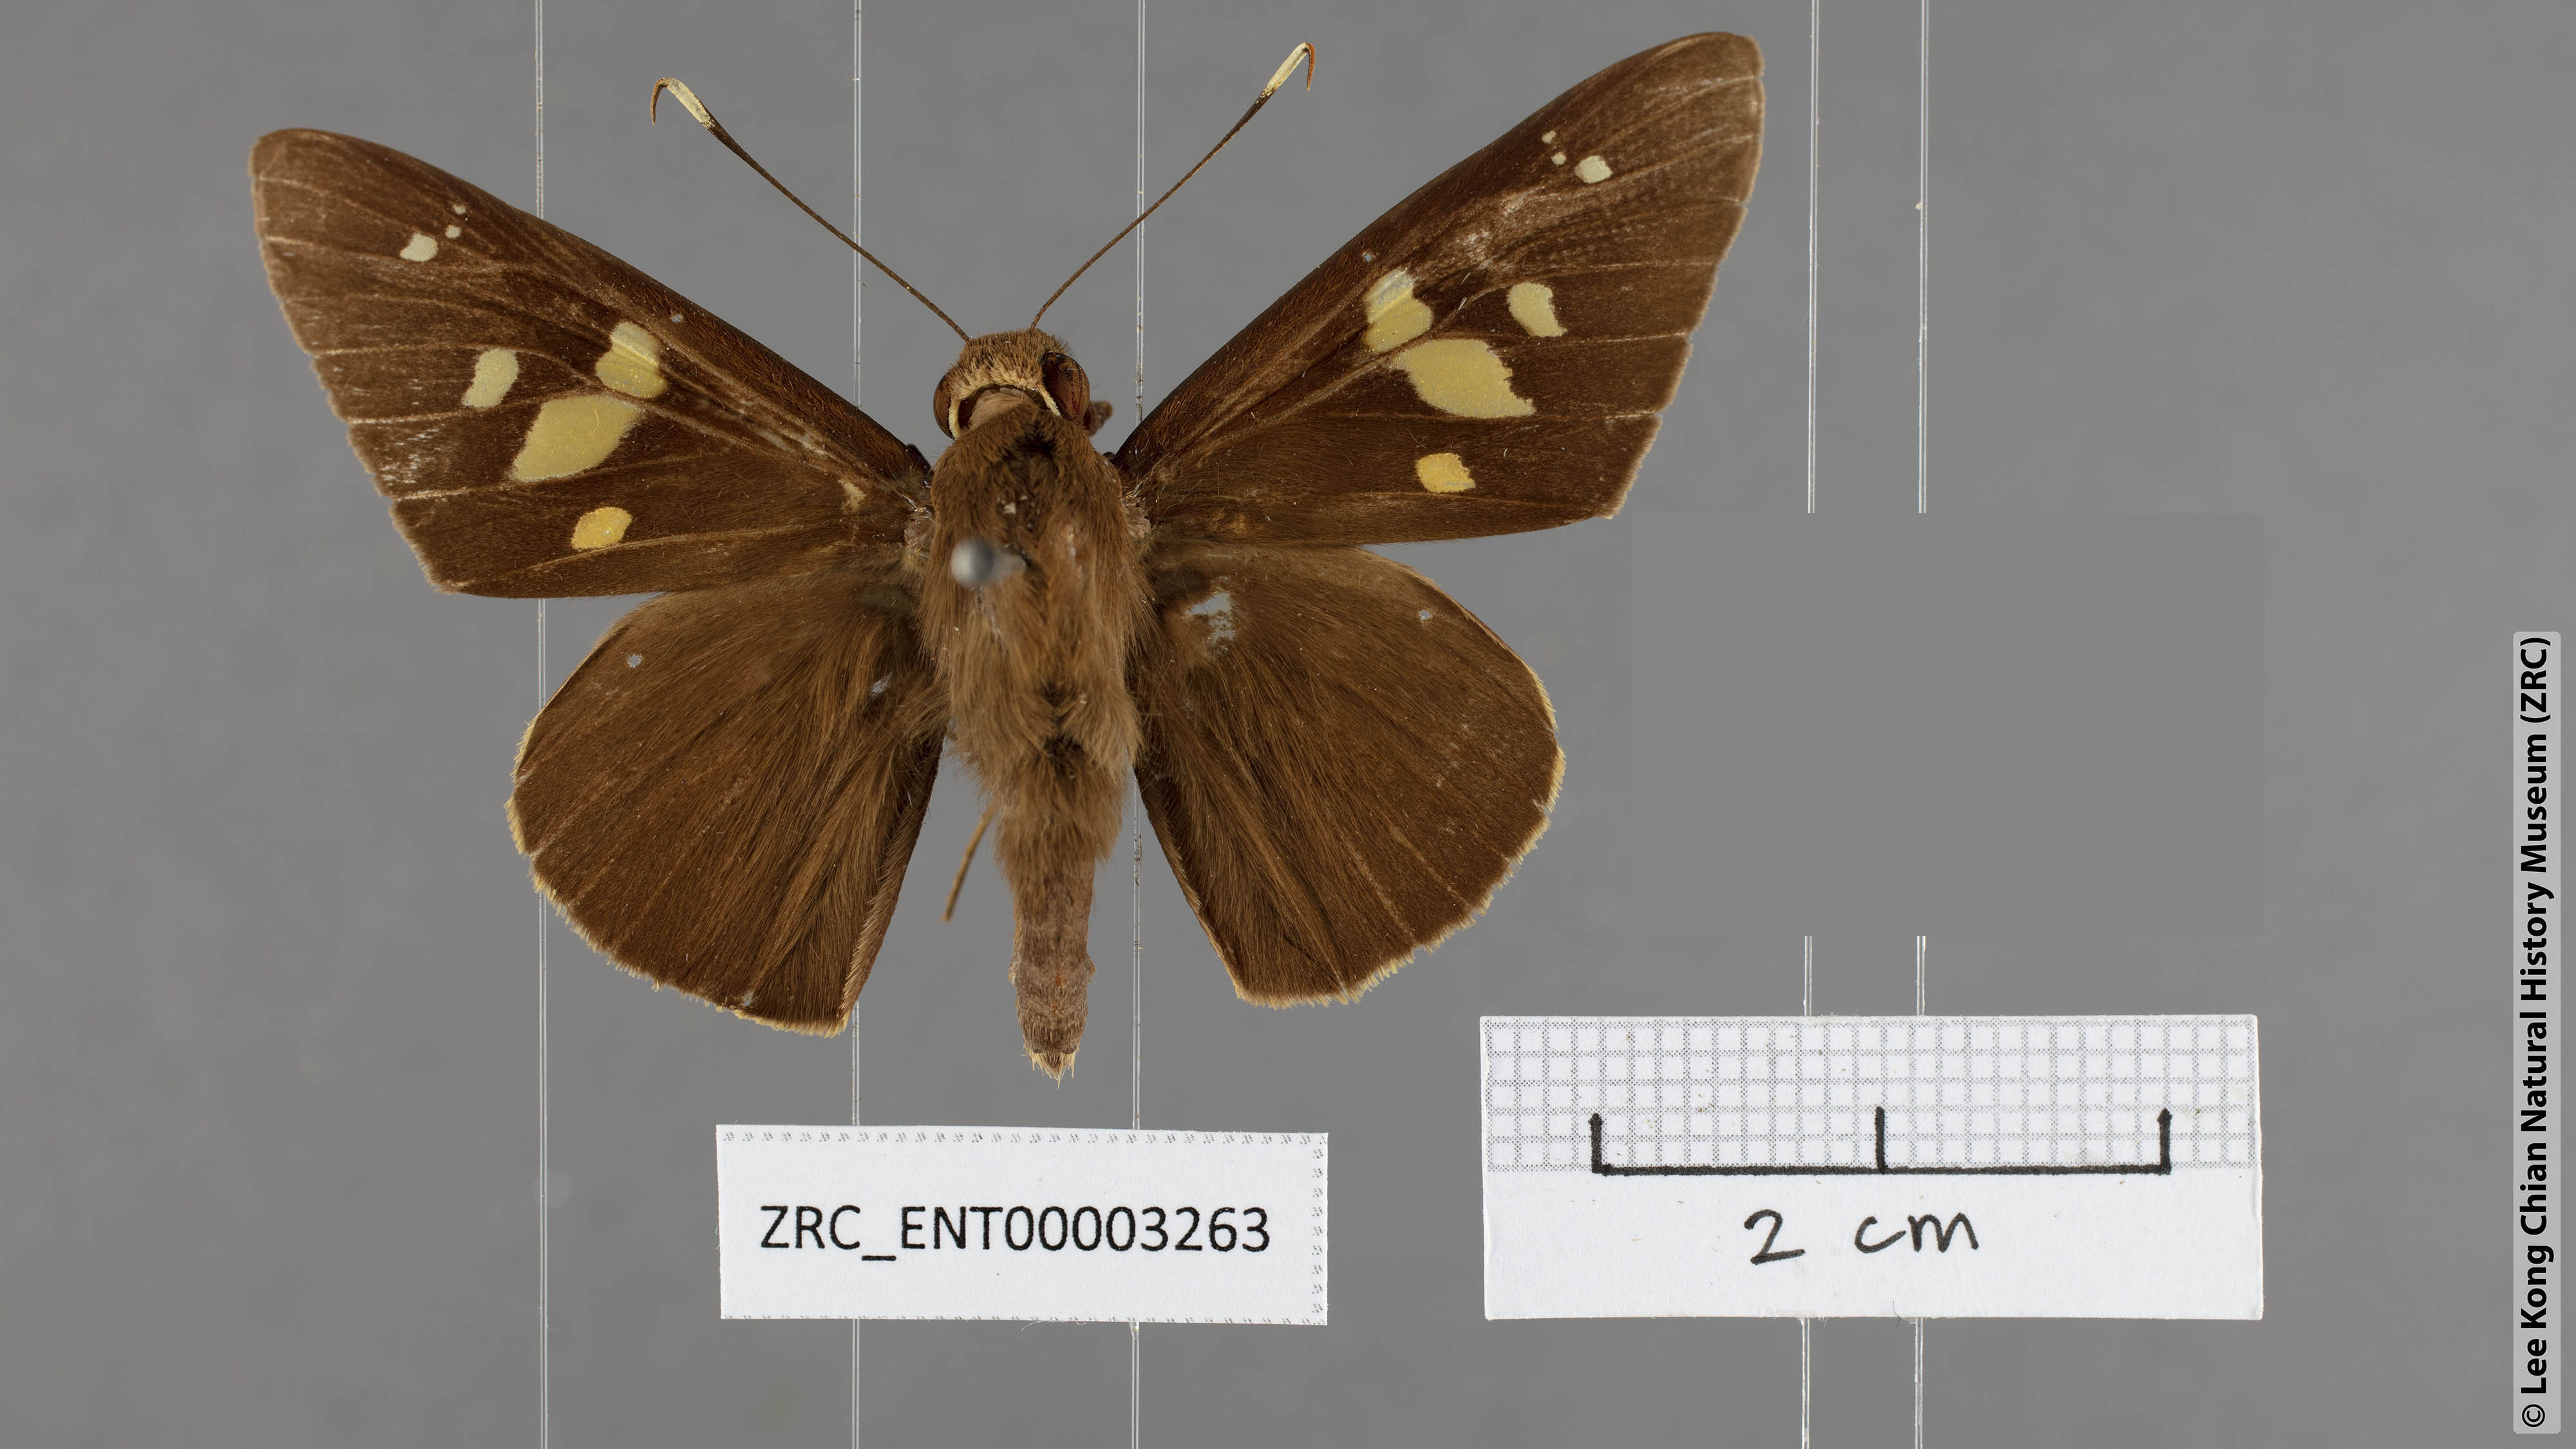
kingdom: Animalia
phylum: Arthropoda
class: Insecta
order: Lepidoptera
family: Hesperiidae
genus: Hidari
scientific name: Hidari doesoena
